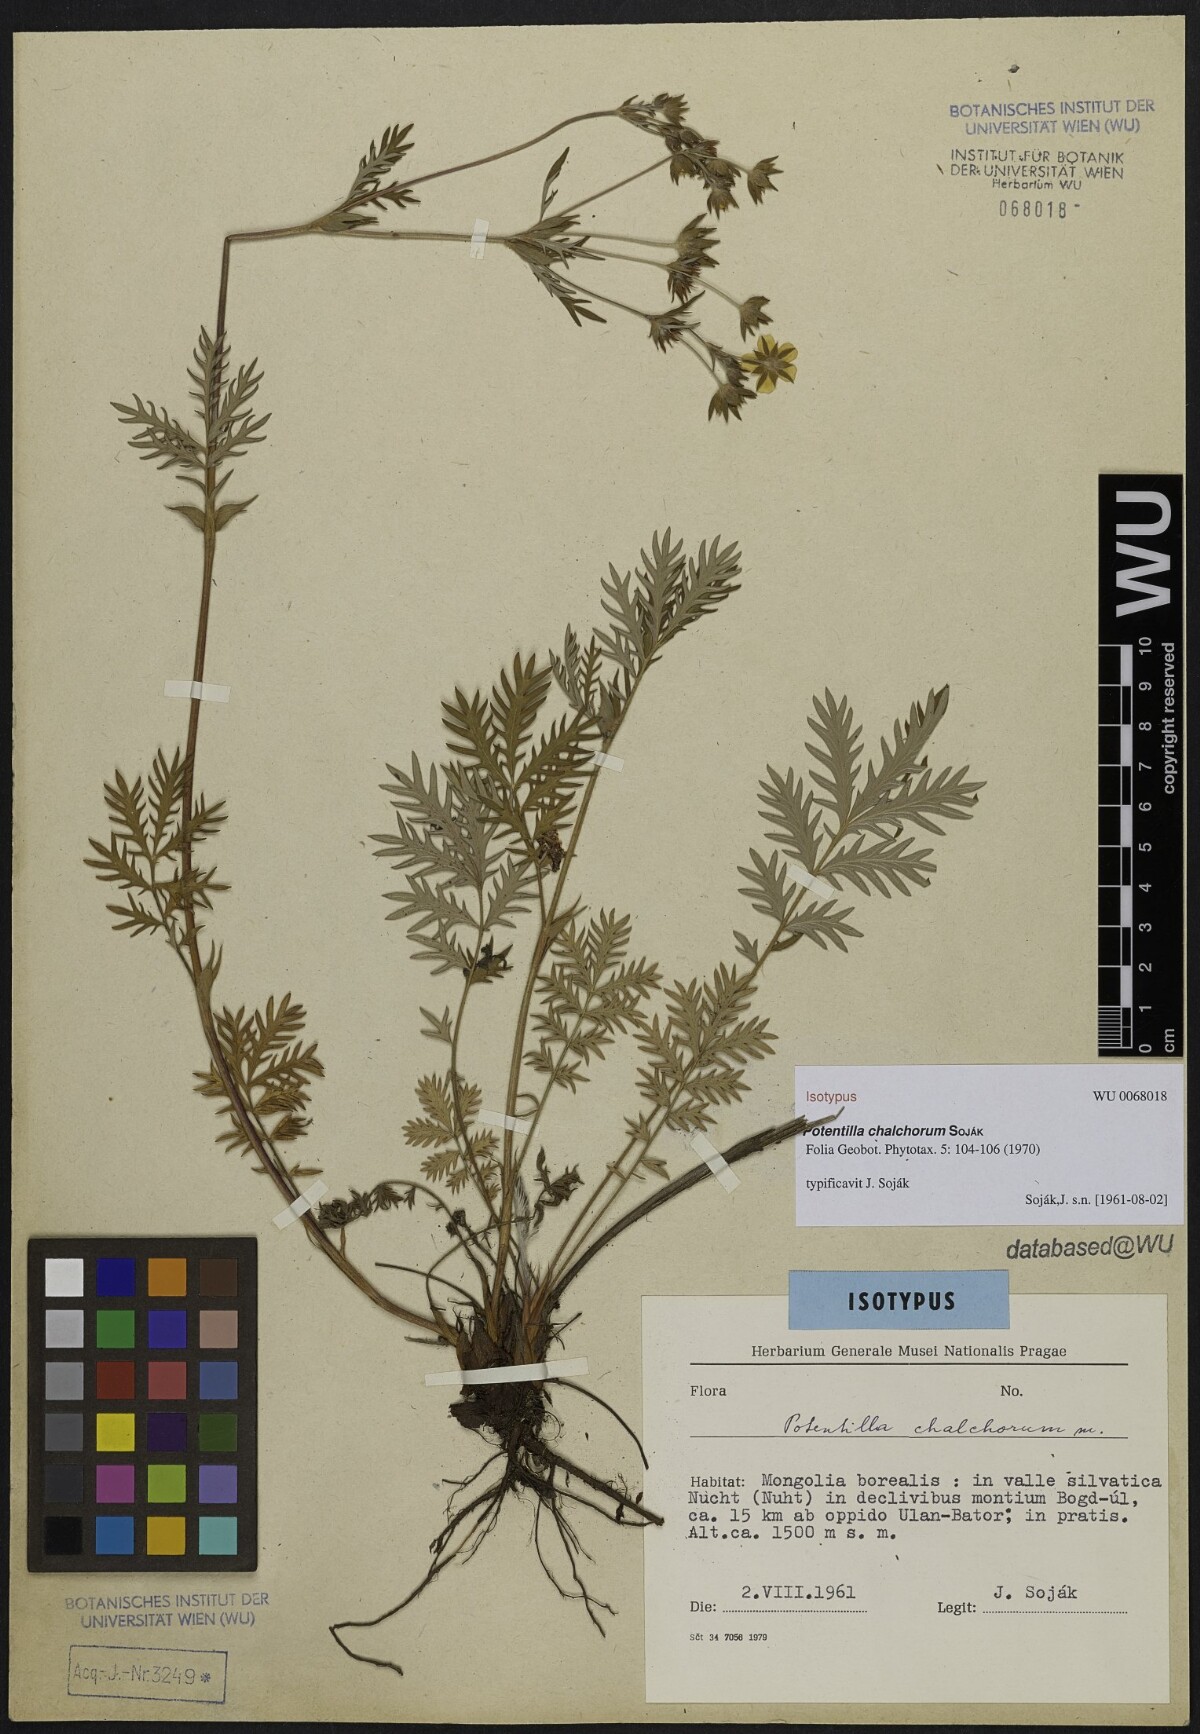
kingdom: Plantae
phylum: Tracheophyta
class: Magnoliopsida
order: Rosales
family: Rosaceae
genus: Potentilla
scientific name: Potentilla chalchorum
